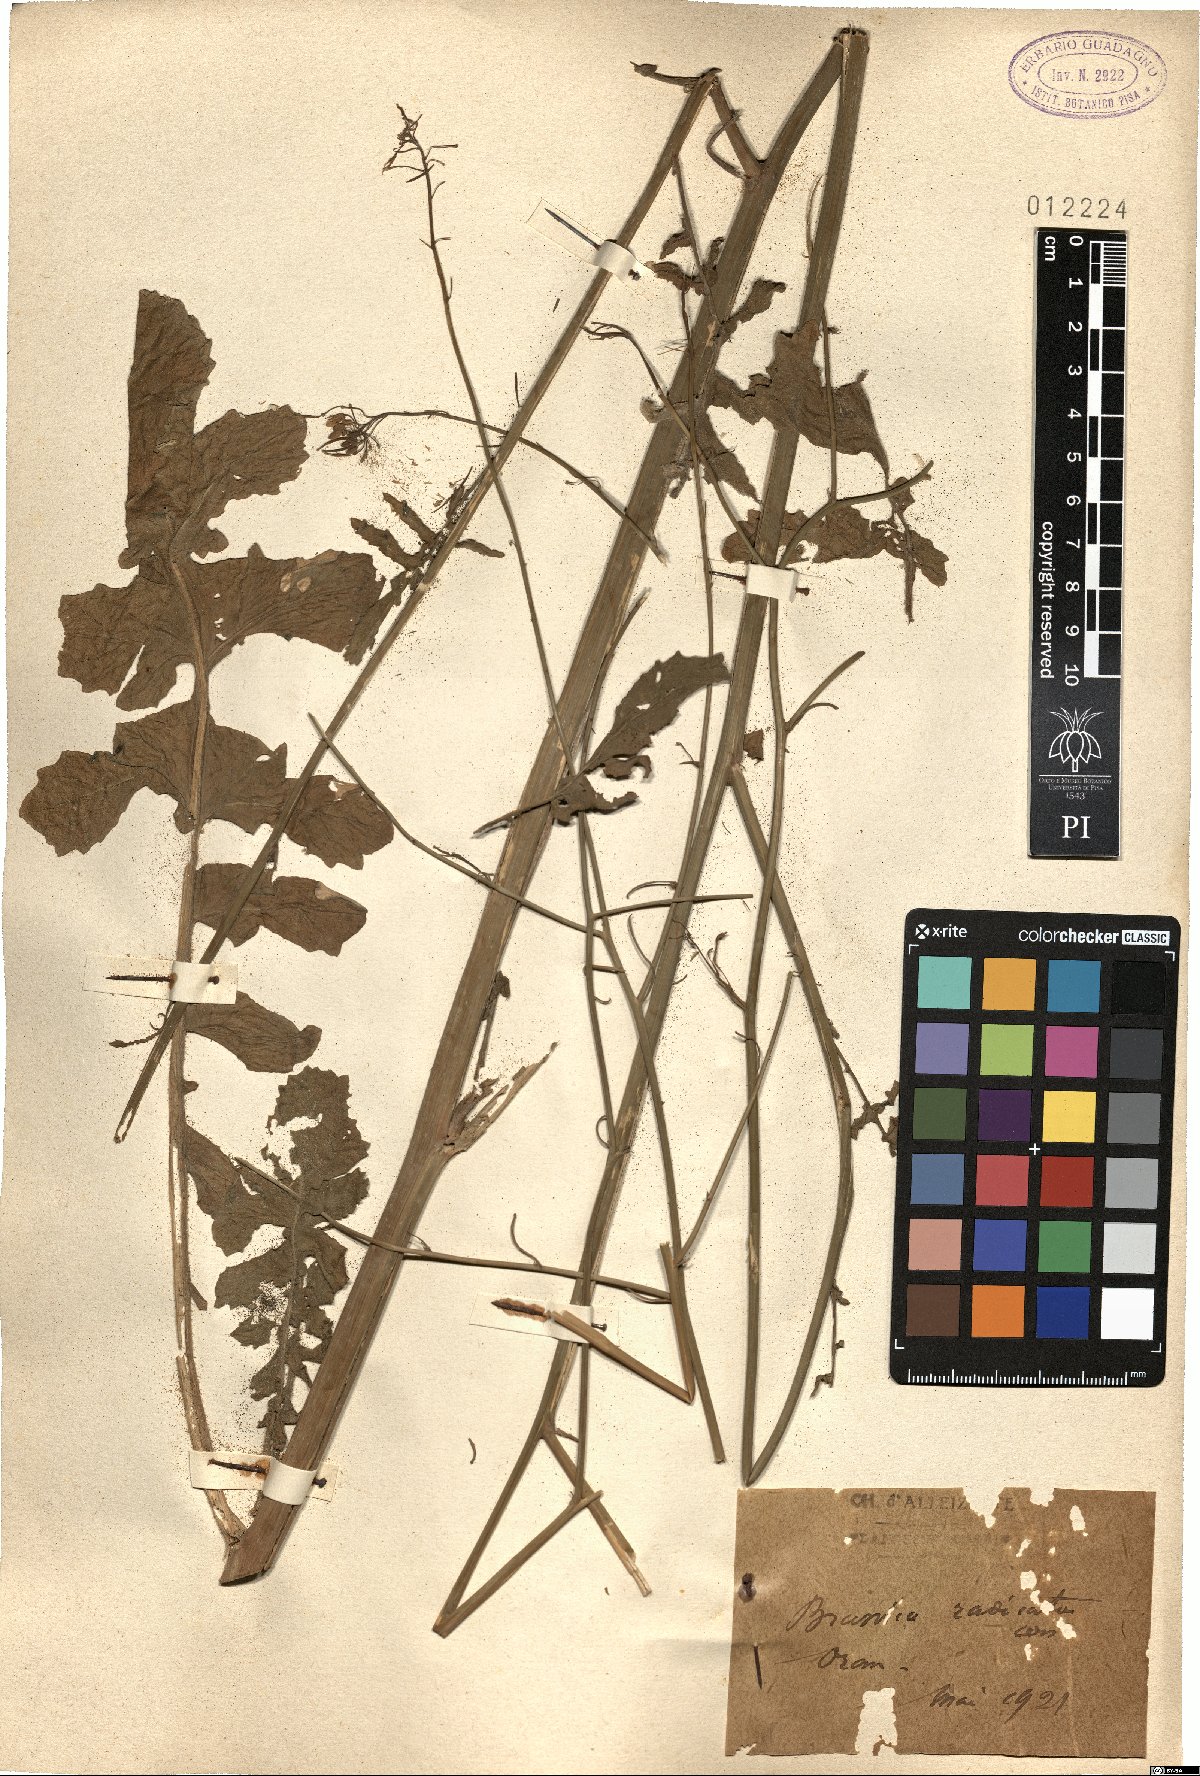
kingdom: Plantae
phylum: Tracheophyta
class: Magnoliopsida
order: Brassicales
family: Brassicaceae
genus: Brassica
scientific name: Brassica fruticulosa
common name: Twiggy turnip
